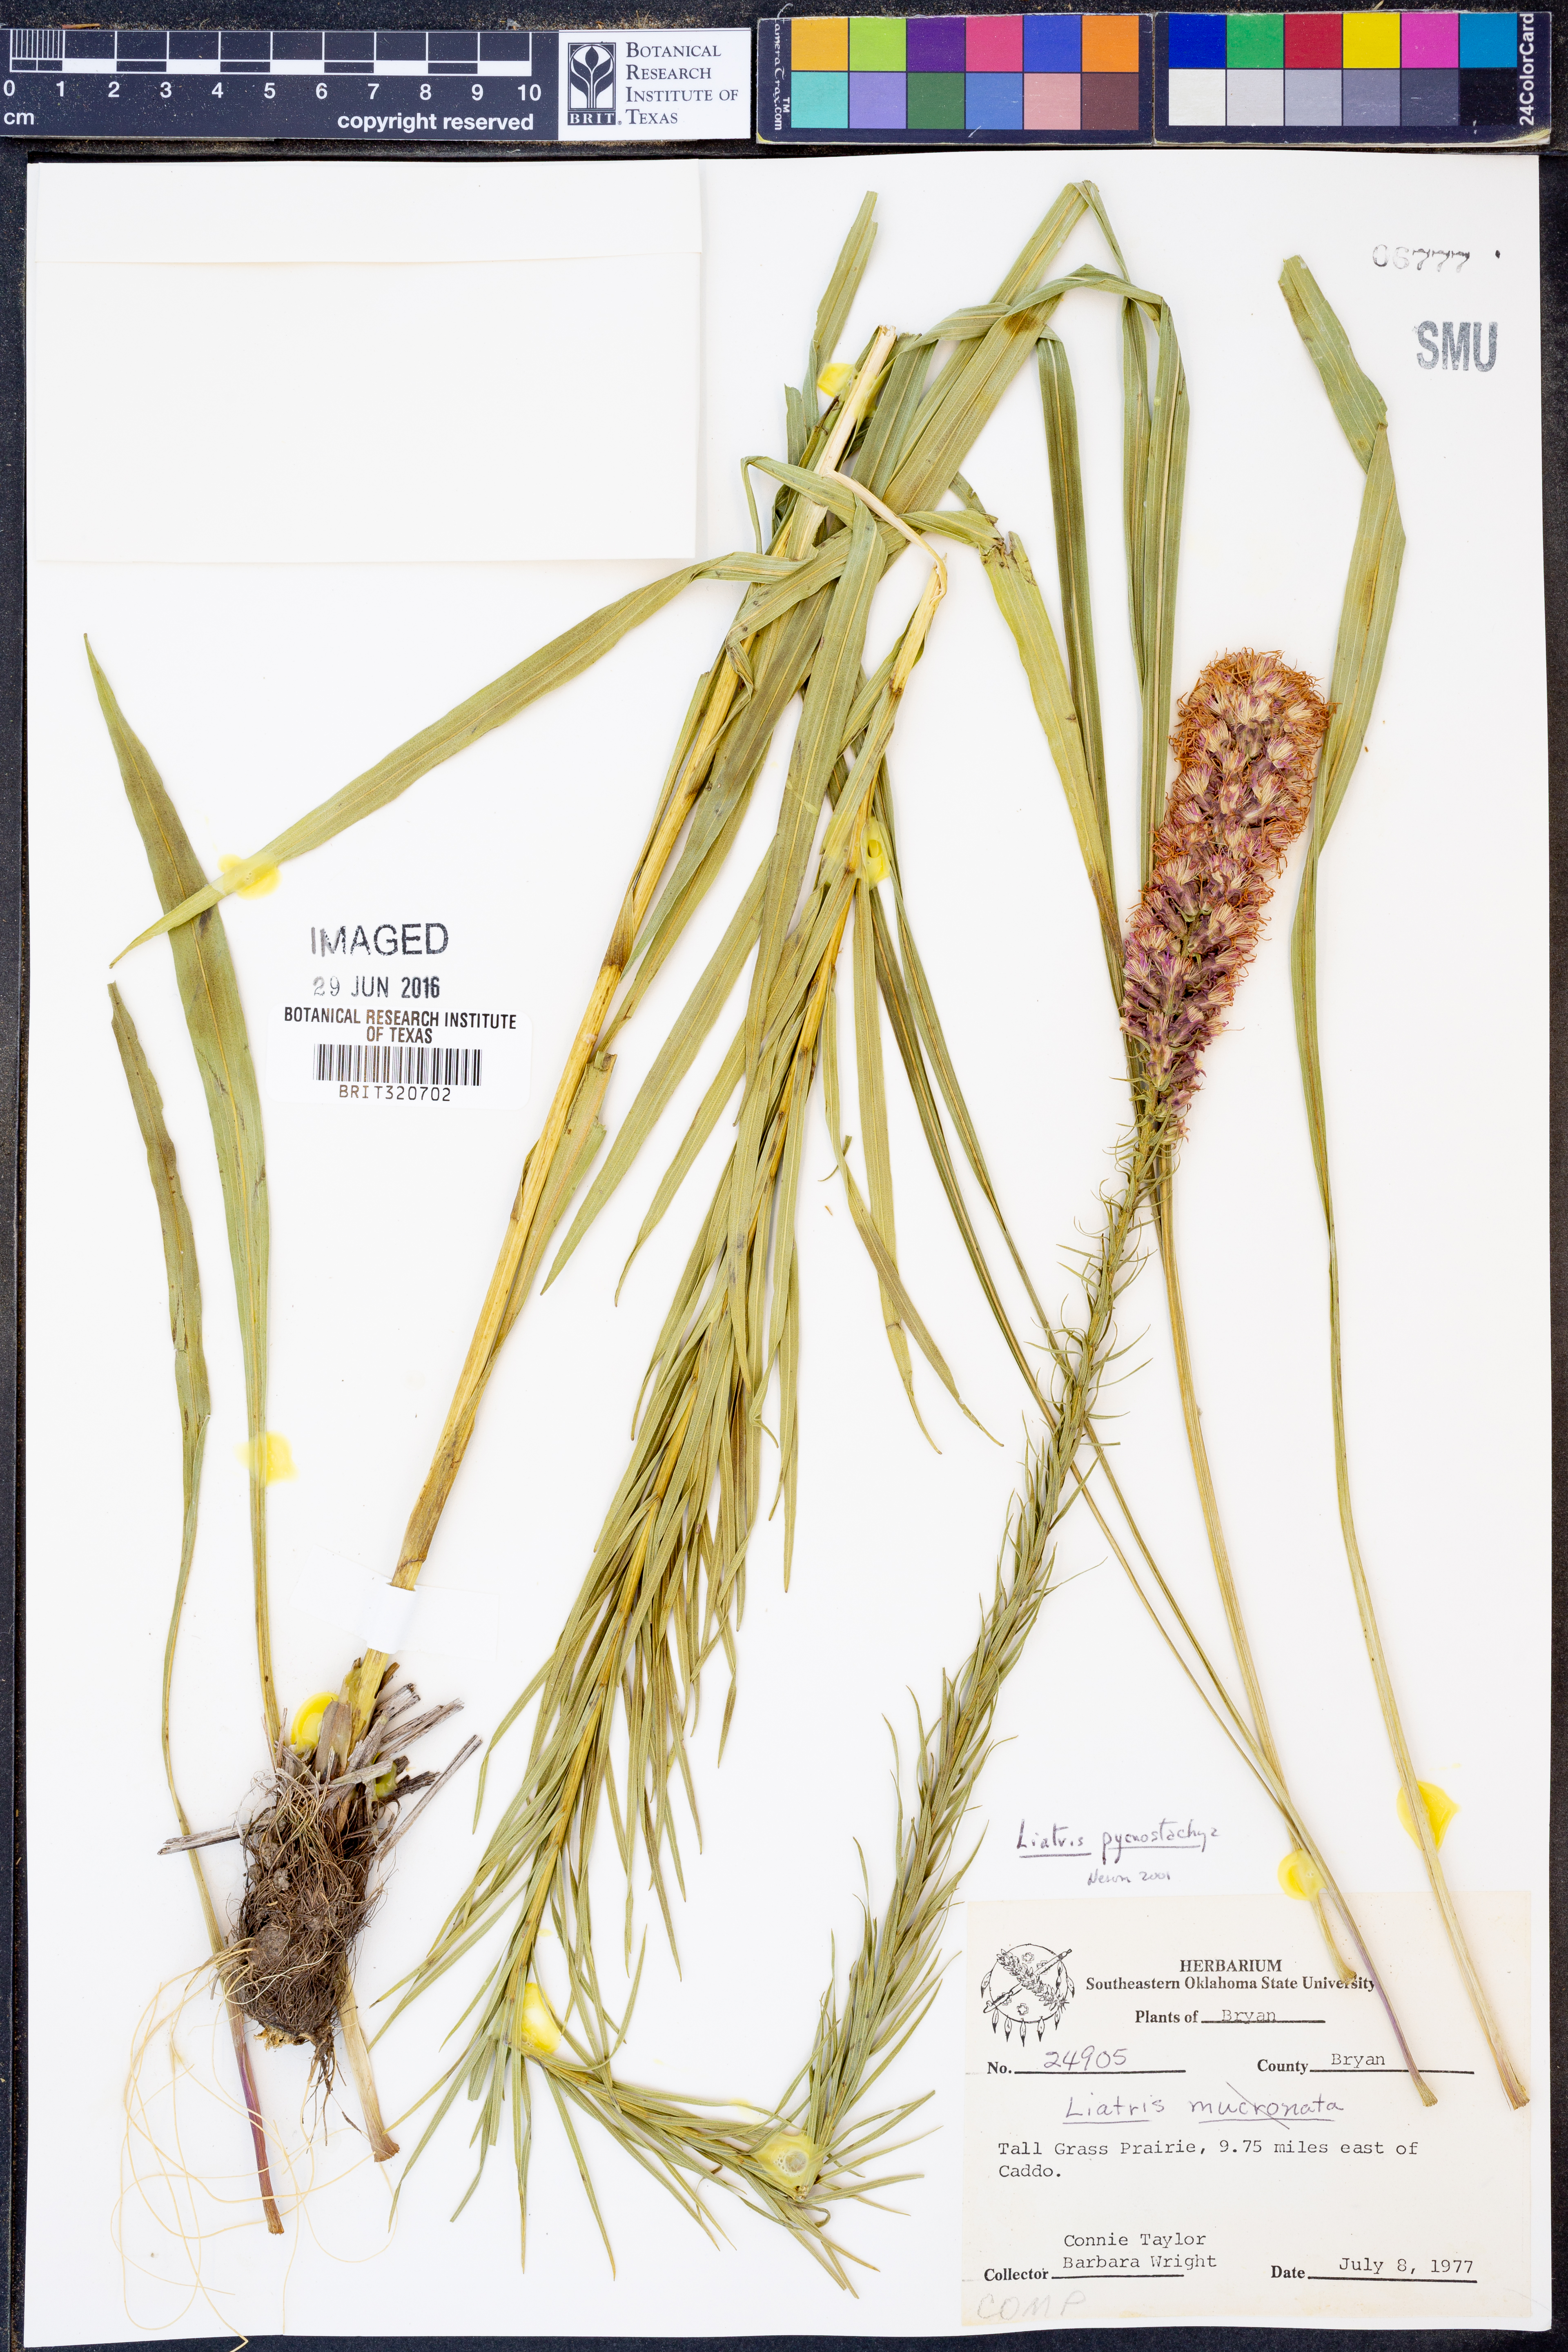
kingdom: Plantae
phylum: Tracheophyta
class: Magnoliopsida
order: Asterales
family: Asteraceae
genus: Liatris
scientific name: Liatris pycnostachya
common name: Cattail gayfeather
